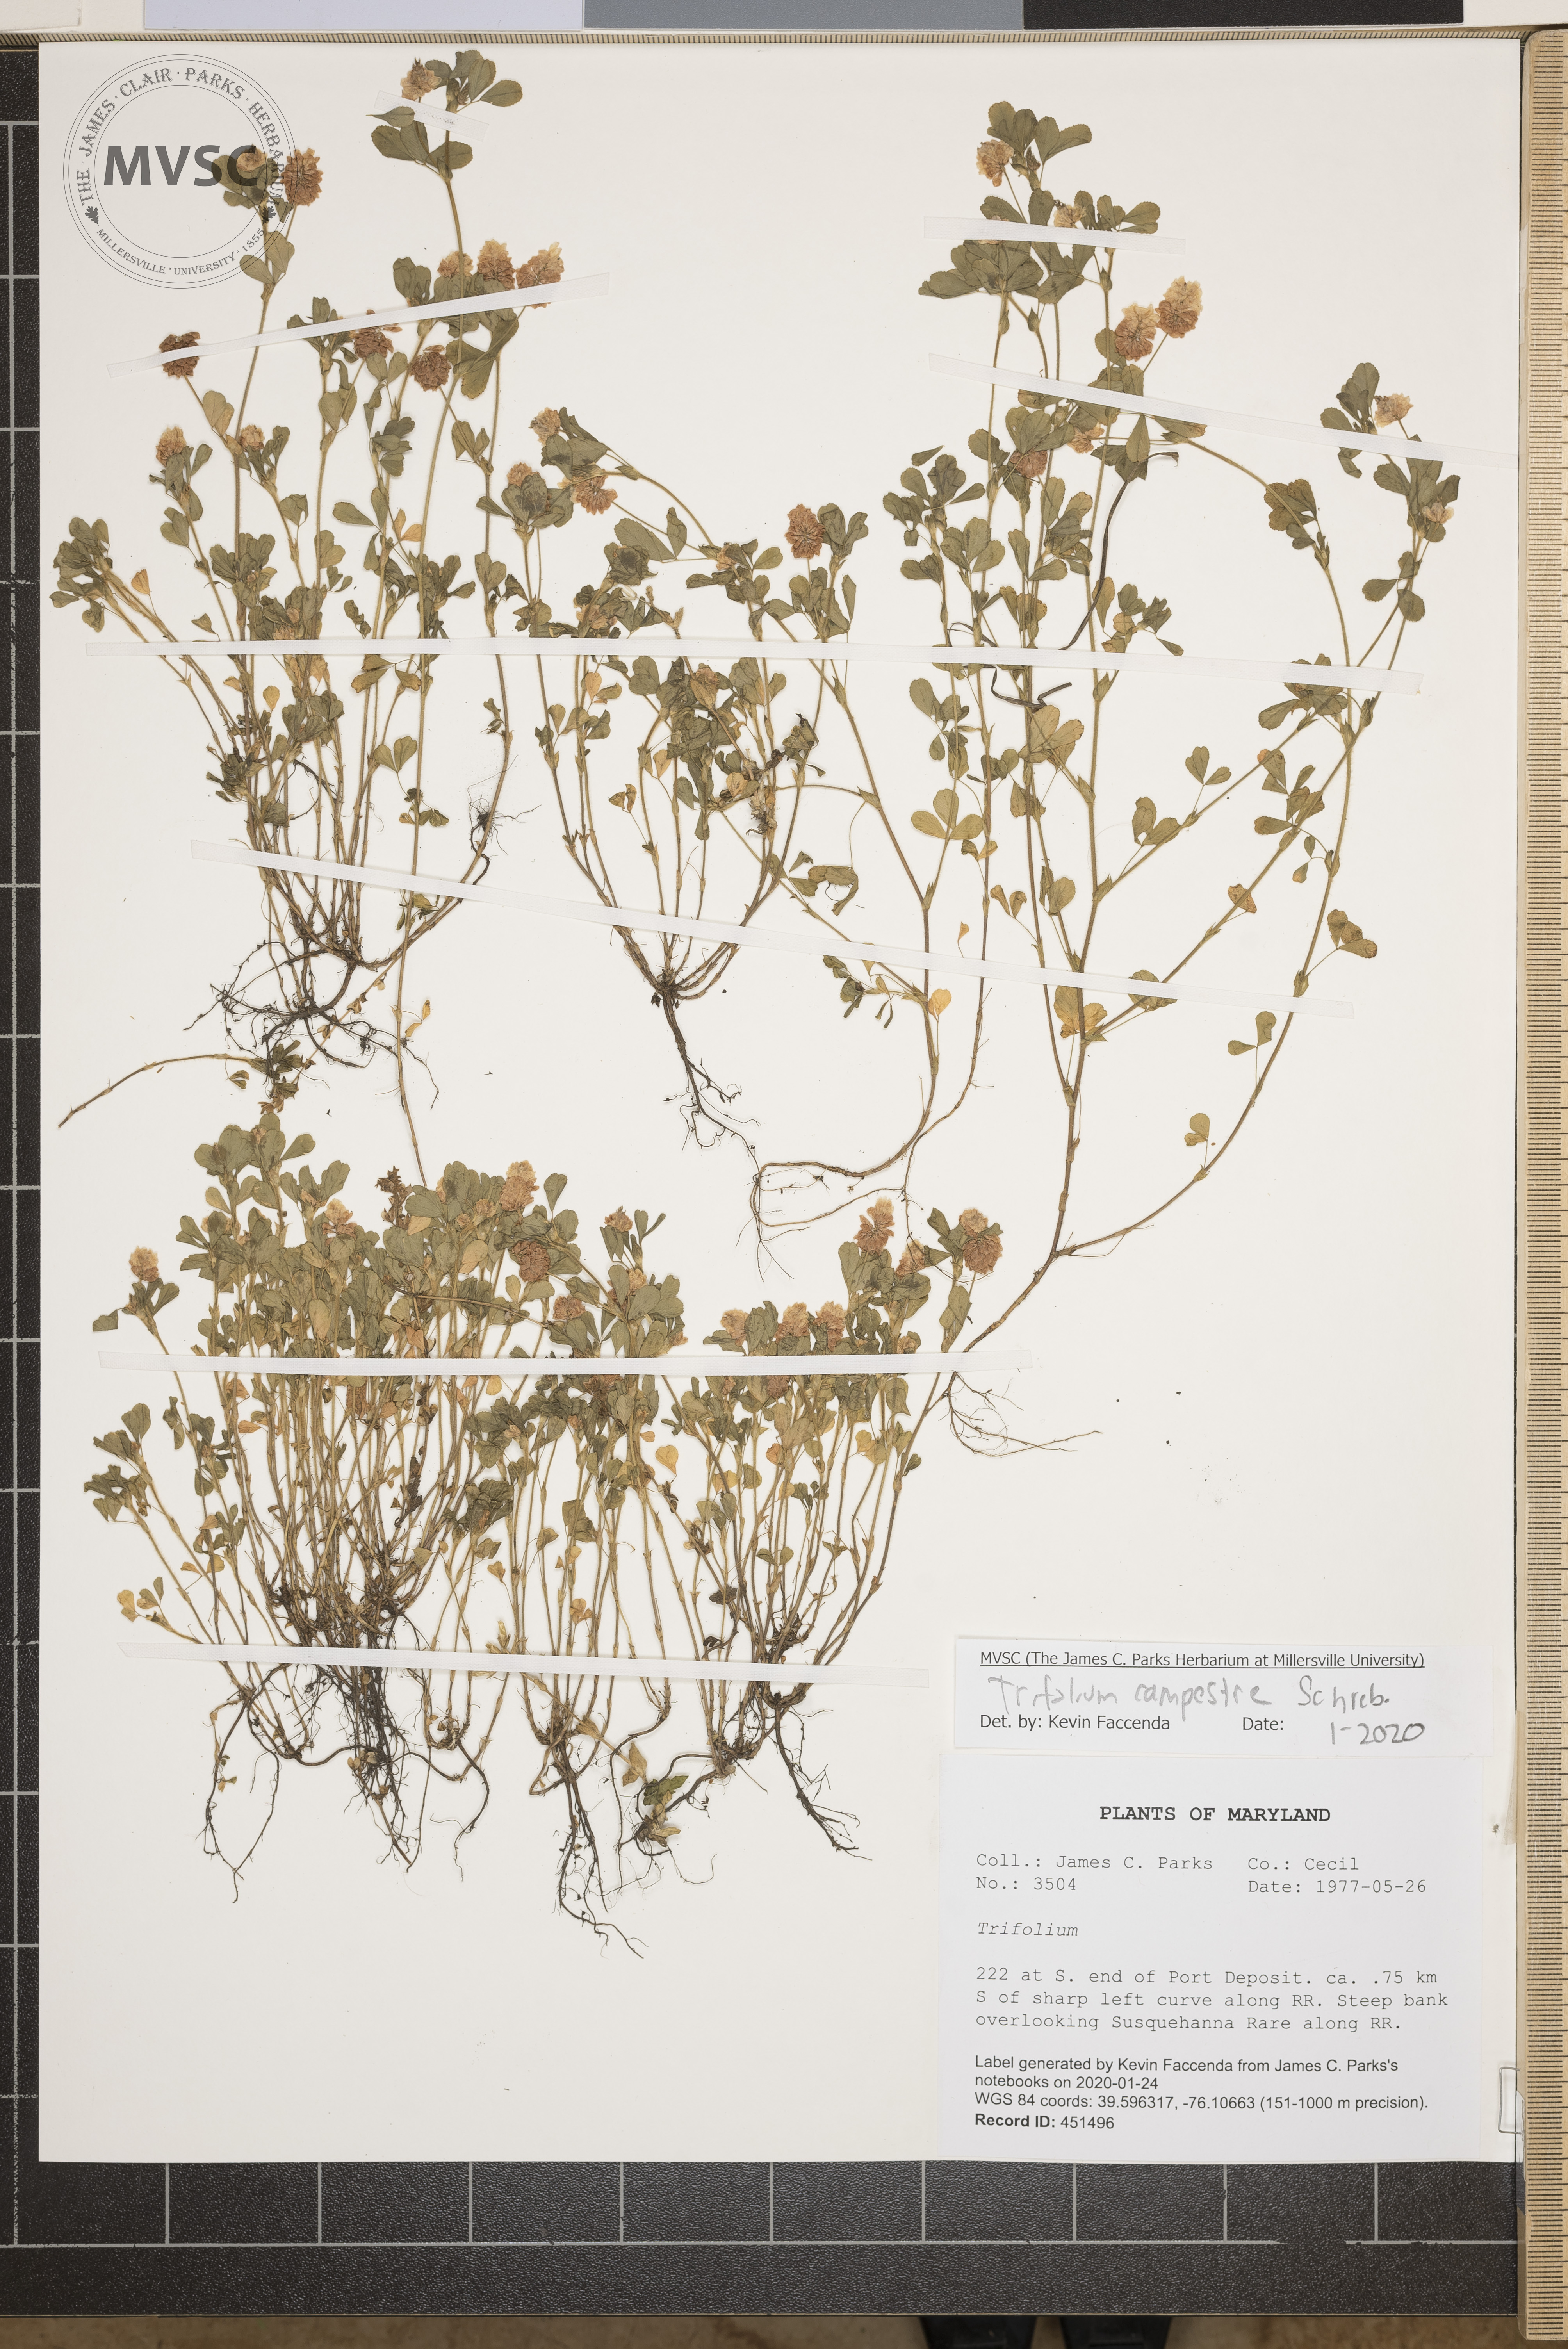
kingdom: Plantae
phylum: Tracheophyta
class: Magnoliopsida
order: Fabales
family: Fabaceae
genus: Trifolium
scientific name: Trifolium campestre
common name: Field clover
